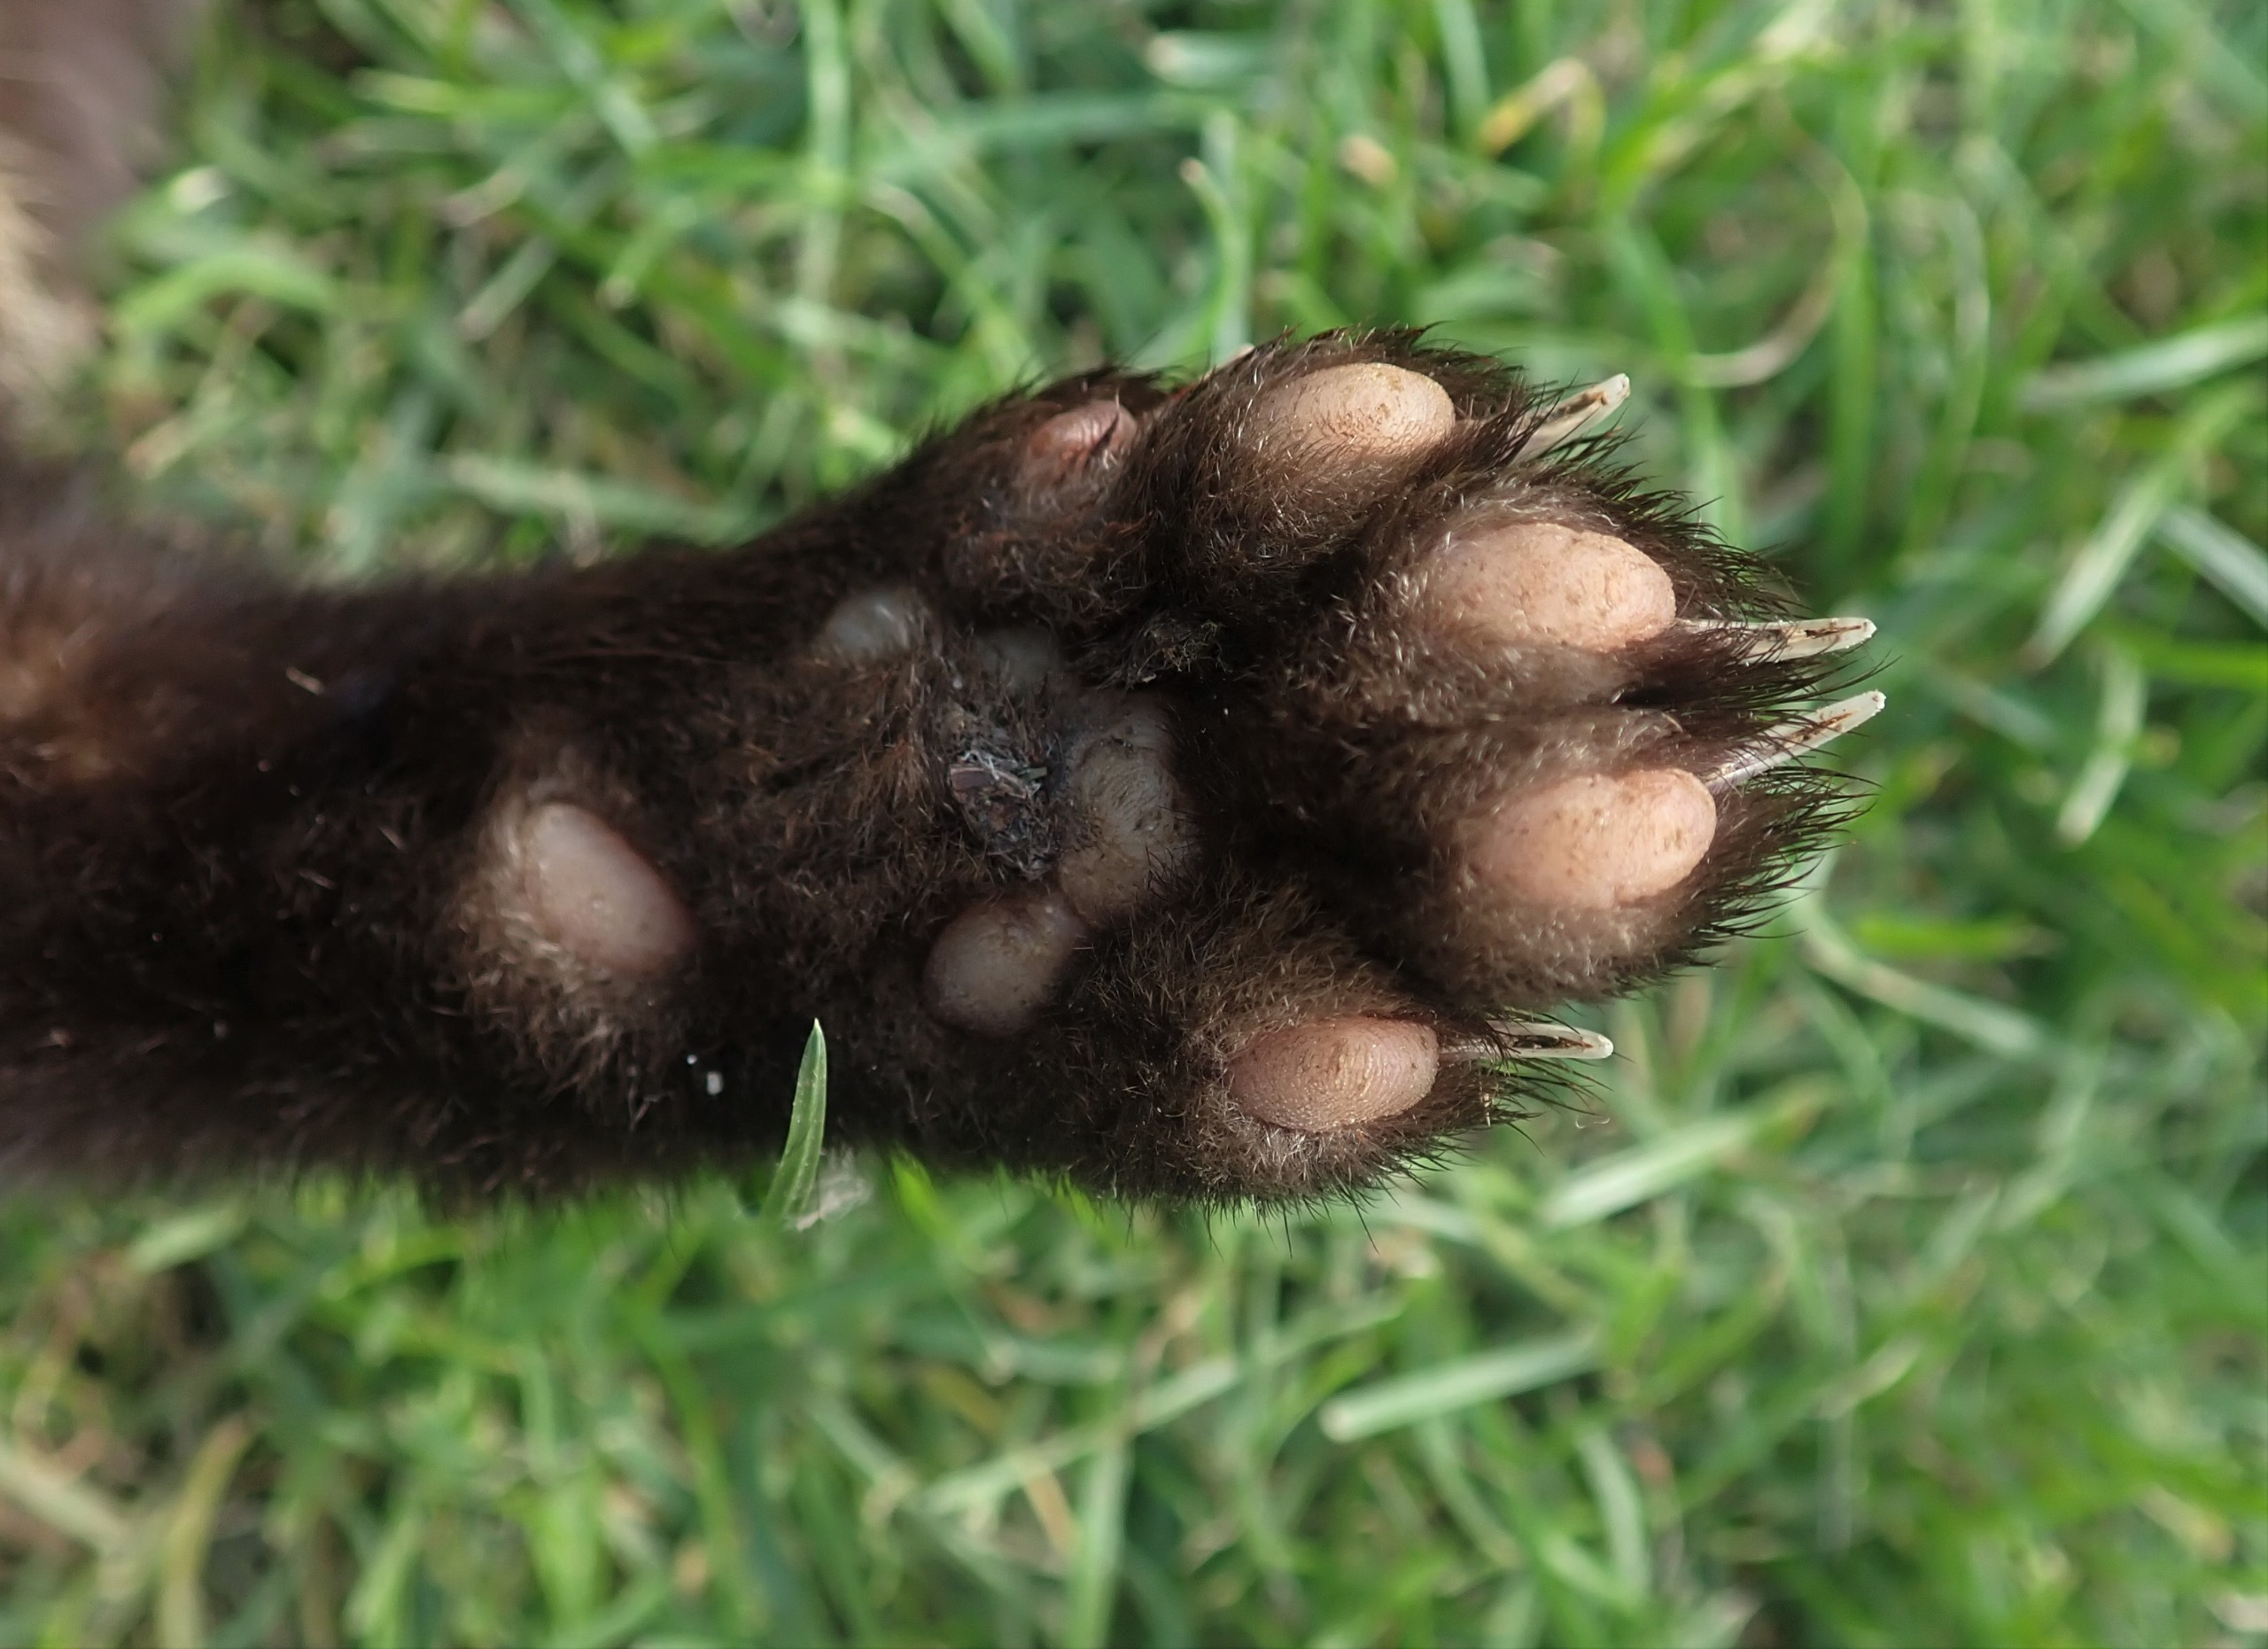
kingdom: Animalia
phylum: Chordata
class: Mammalia
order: Carnivora
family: Mustelidae
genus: Martes
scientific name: Martes martes
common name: Skovmår
